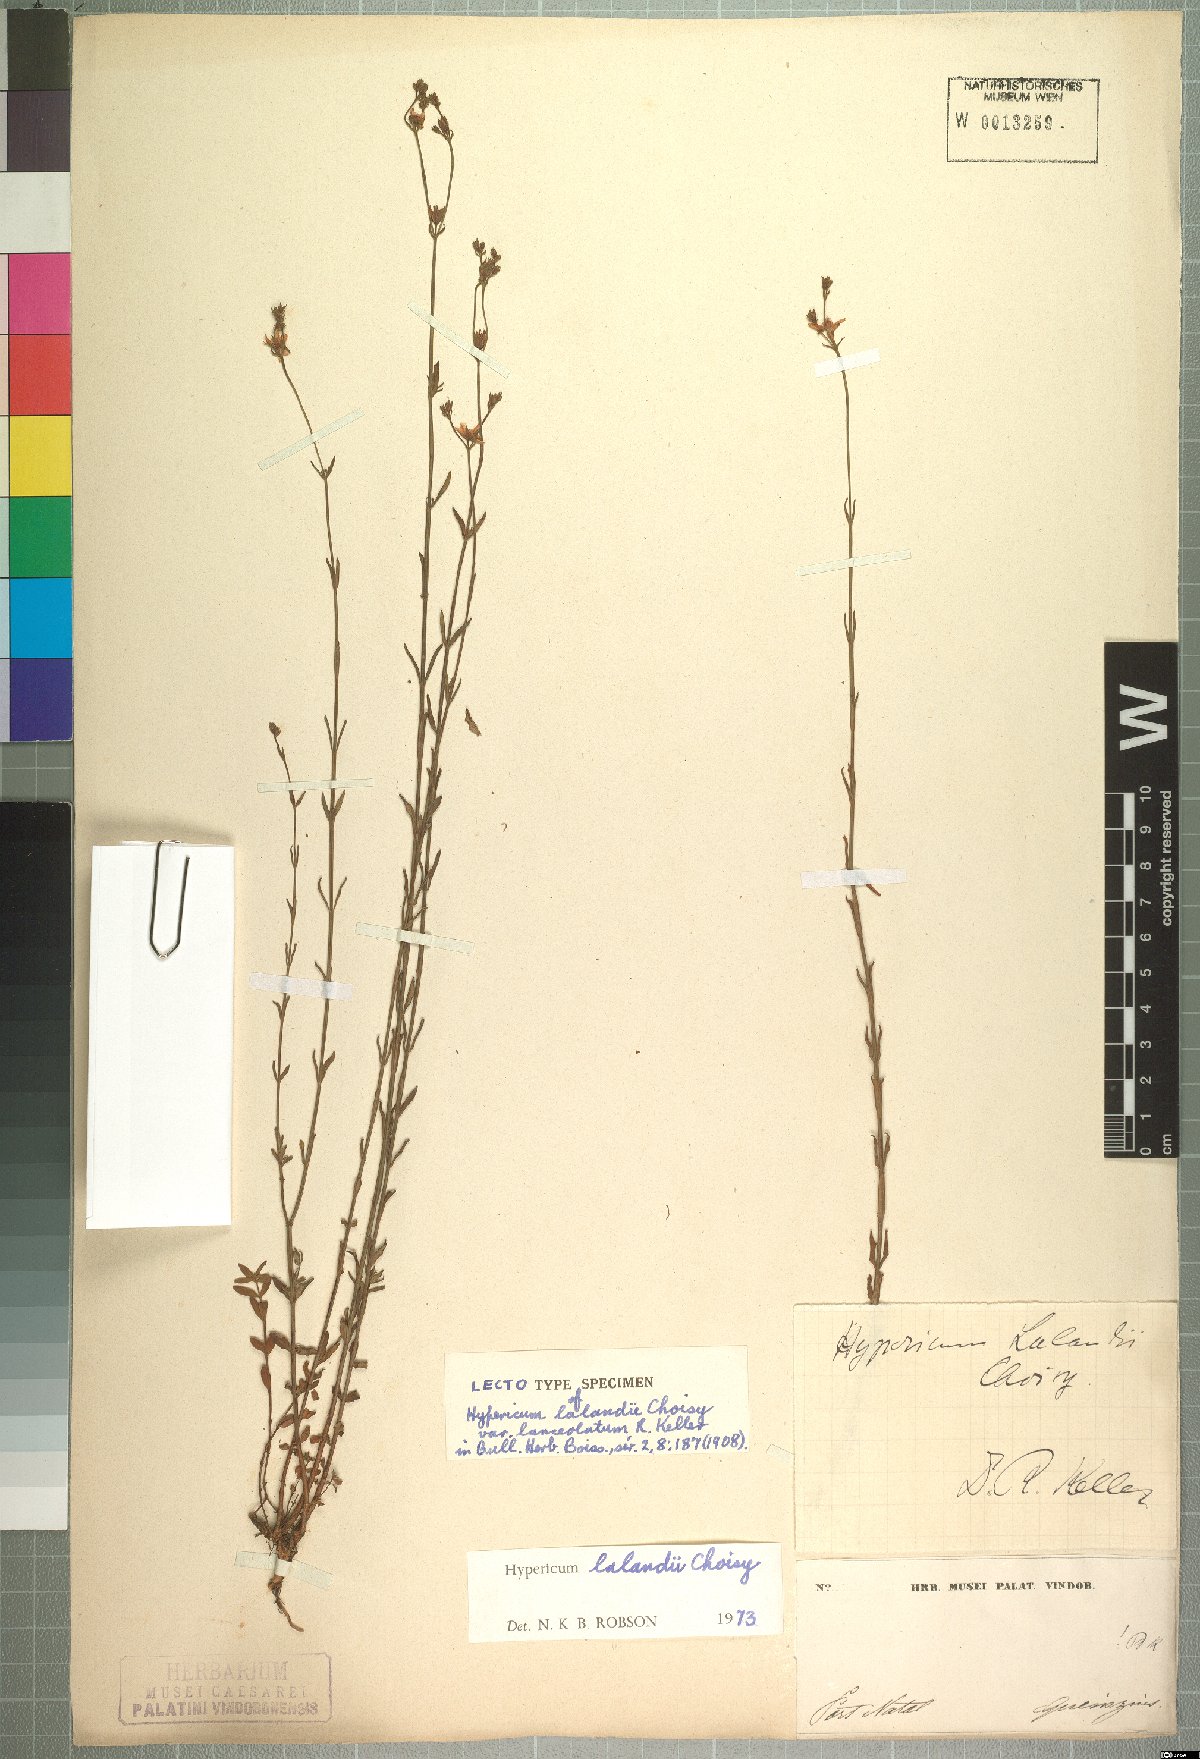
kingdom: Plantae
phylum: Tracheophyta
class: Magnoliopsida
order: Malpighiales
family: Hypericaceae
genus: Hypericum
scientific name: Hypericum lalandii
